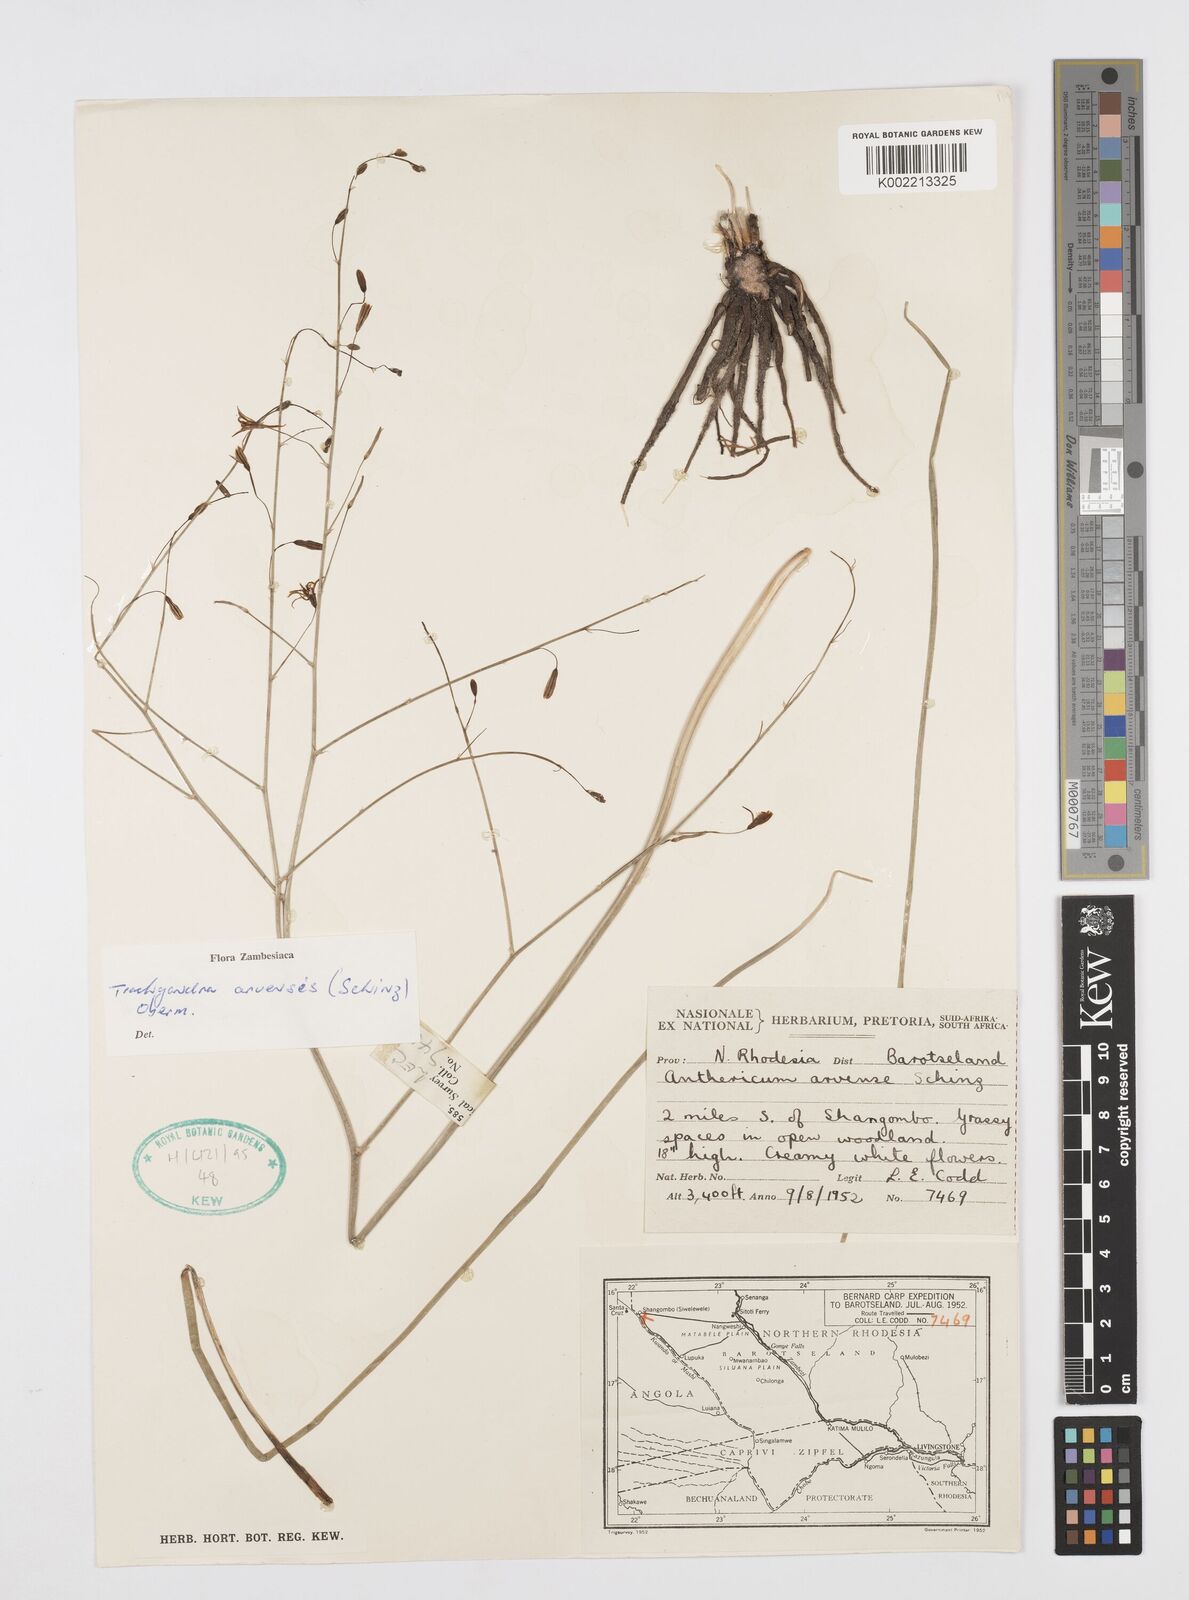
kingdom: Plantae
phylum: Tracheophyta
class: Liliopsida
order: Asparagales
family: Asphodelaceae
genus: Trachyandra
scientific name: Trachyandra arvensis
